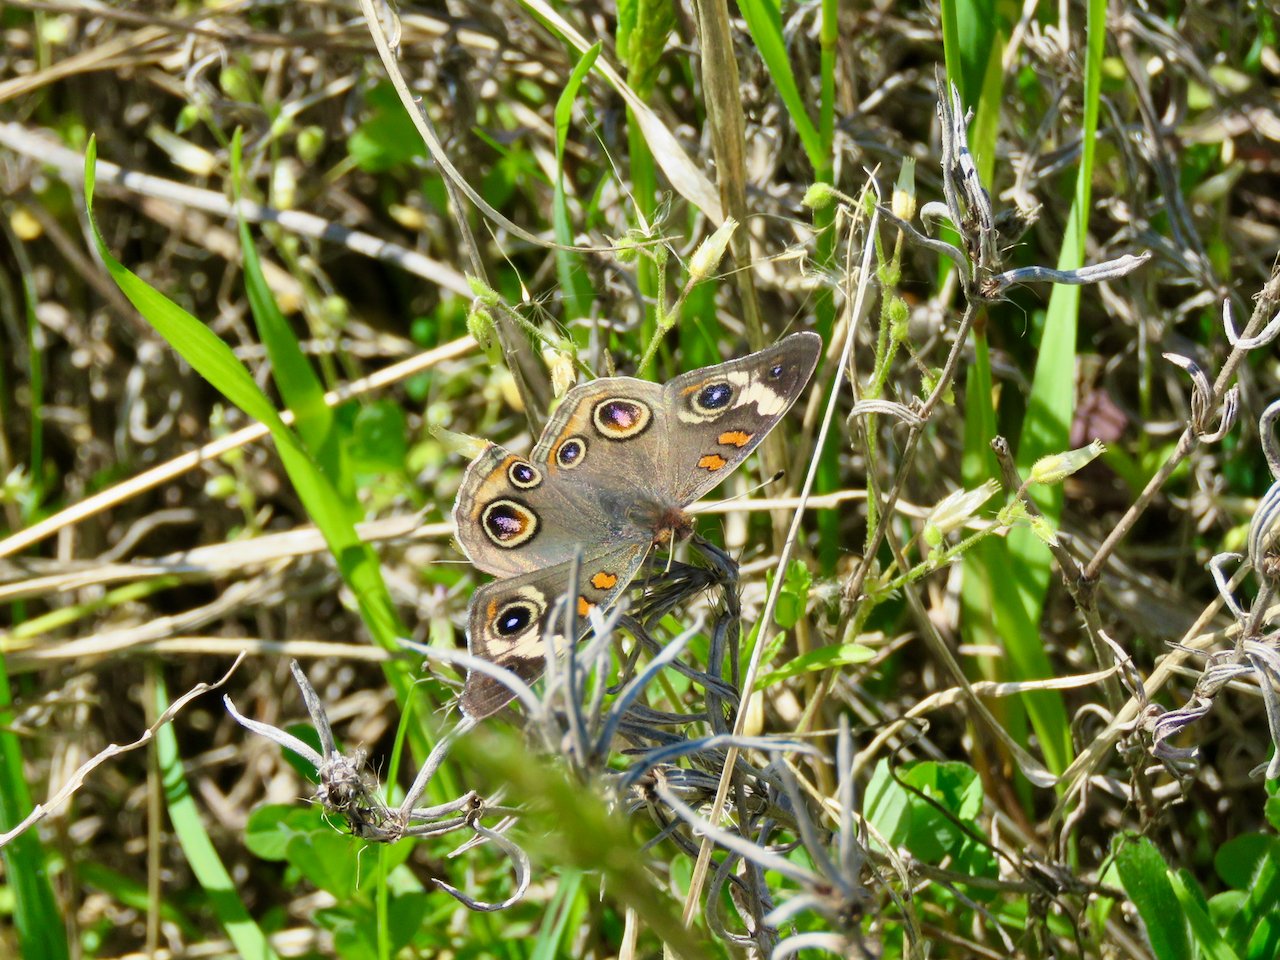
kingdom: Animalia
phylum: Arthropoda
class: Insecta
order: Lepidoptera
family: Nymphalidae
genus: Junonia
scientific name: Junonia coenia
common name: Common Buckeye
